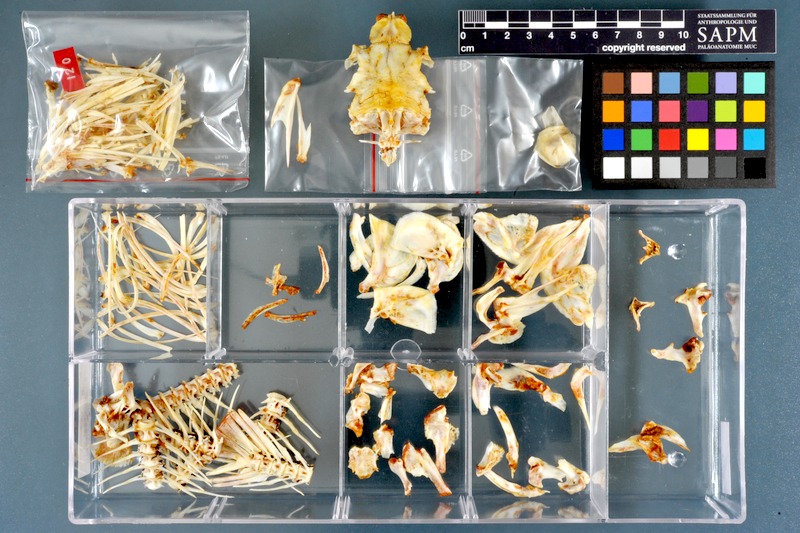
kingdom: Animalia
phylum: Chordata
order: Cypriniformes
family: Cyprinidae
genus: Labeo
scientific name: Labeo forskalii
